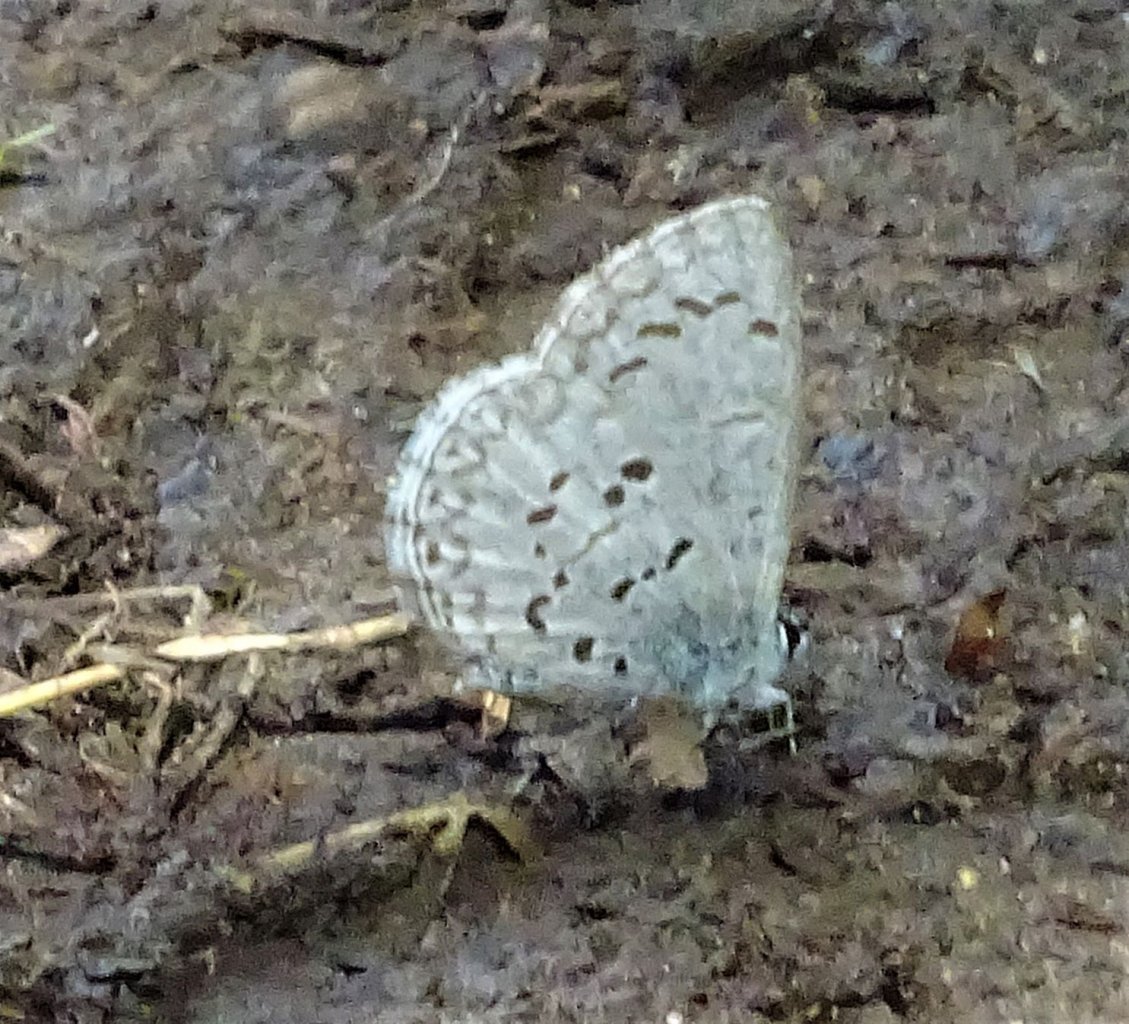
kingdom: Animalia
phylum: Arthropoda
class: Insecta
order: Lepidoptera
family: Lycaenidae
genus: Celastrina
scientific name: Celastrina lucia
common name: Northern Spring Azure
